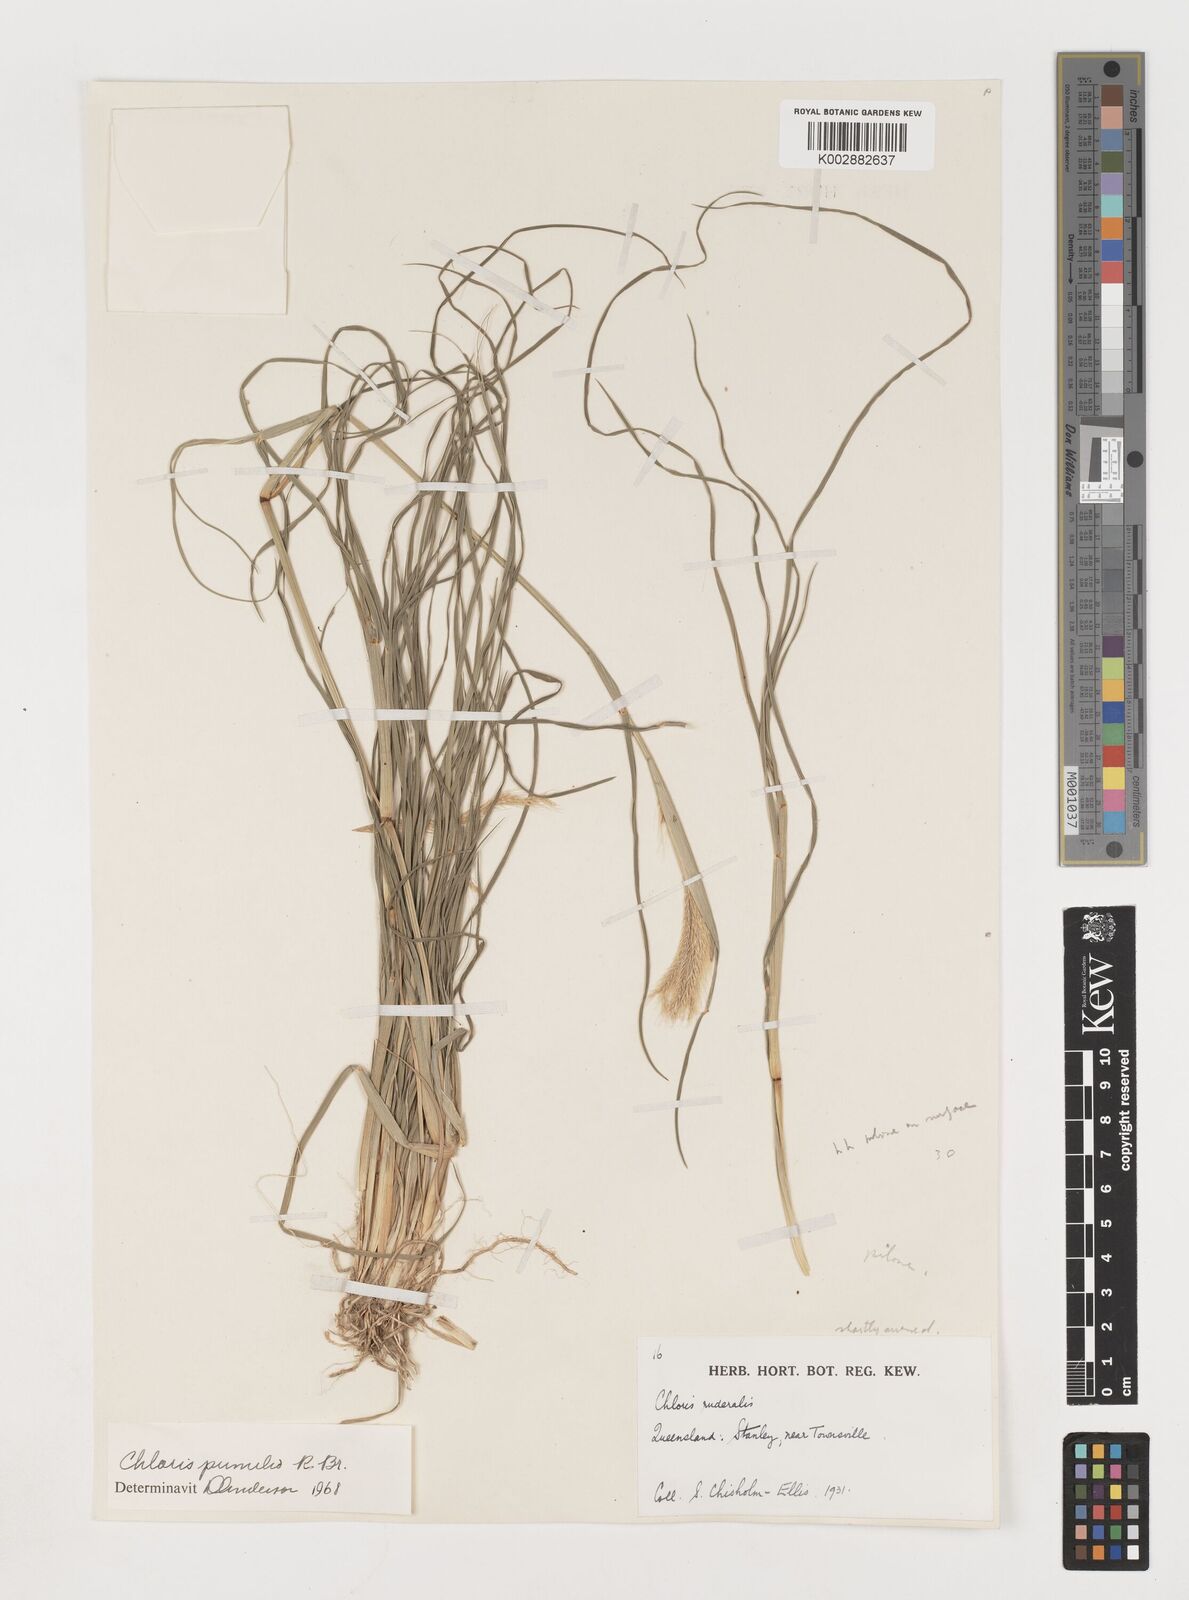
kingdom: Plantae
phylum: Tracheophyta
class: Liliopsida
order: Poales
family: Poaceae
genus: Chloris
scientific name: Chloris pumilio
